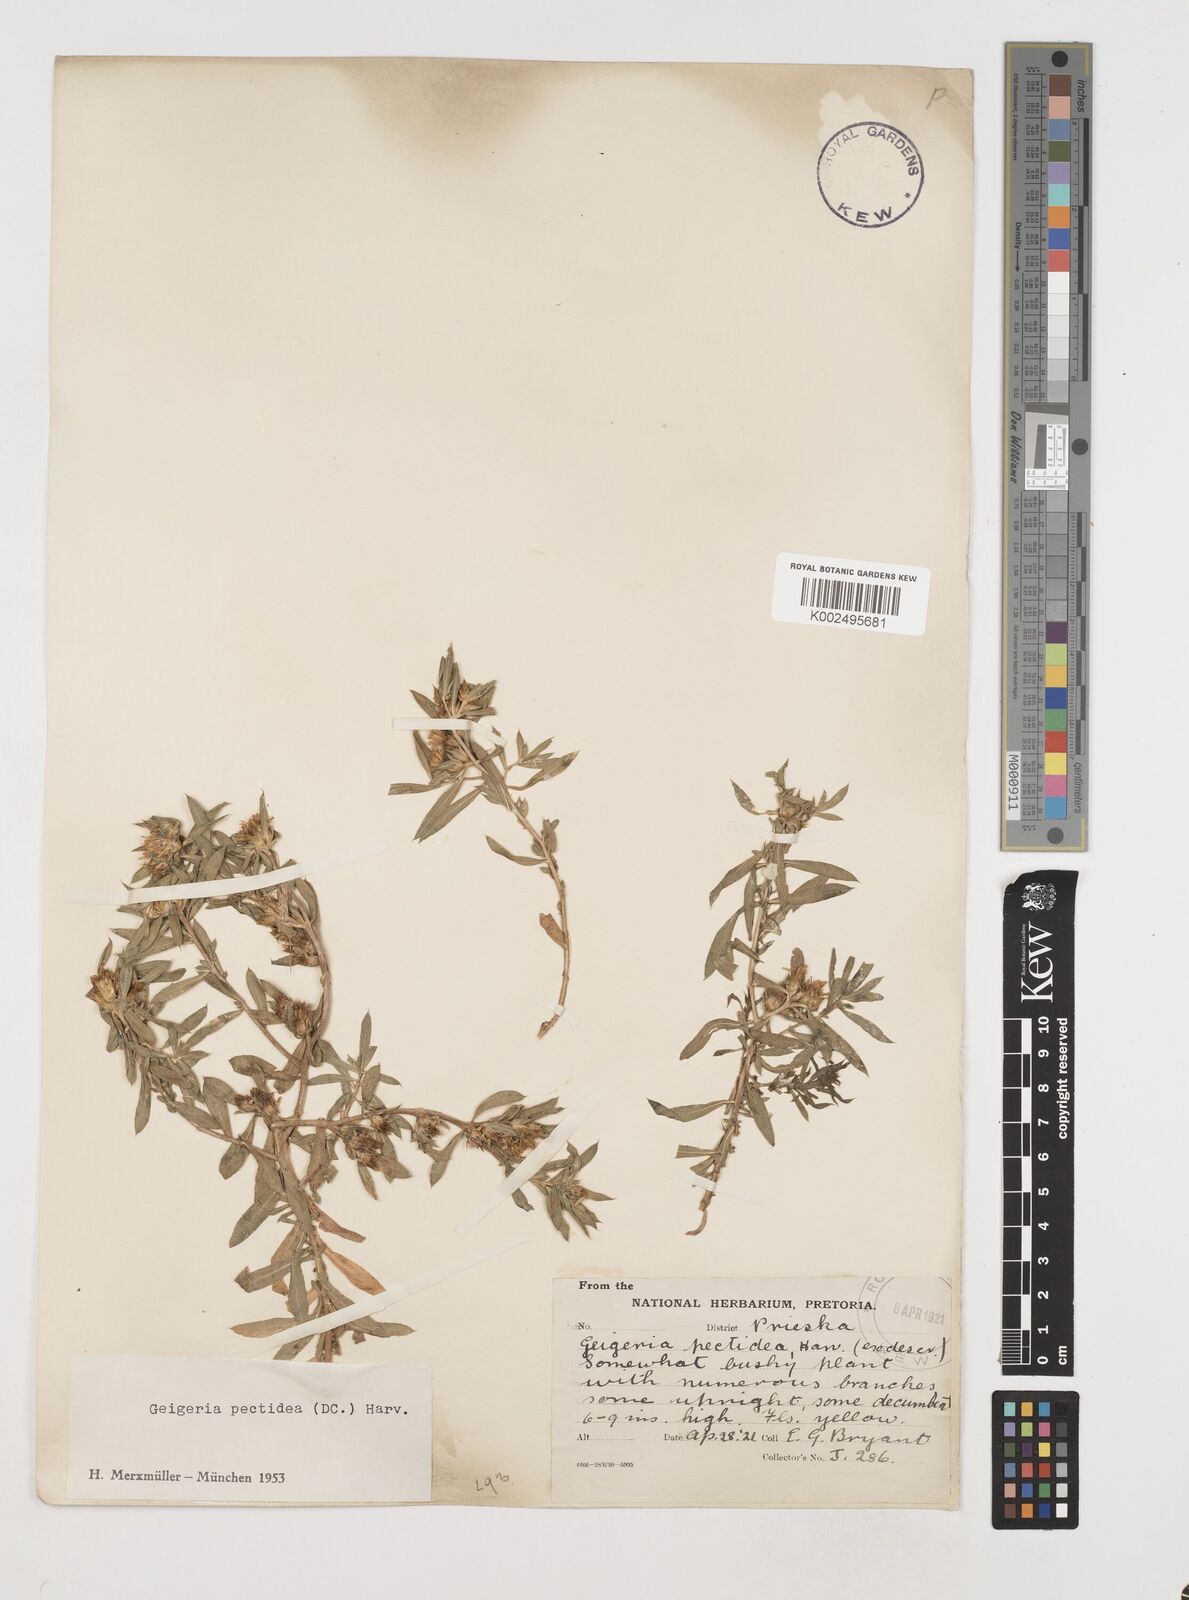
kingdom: Plantae
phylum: Tracheophyta
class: Magnoliopsida
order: Asterales
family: Asteraceae
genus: Geigeria
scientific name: Geigeria pectidea
